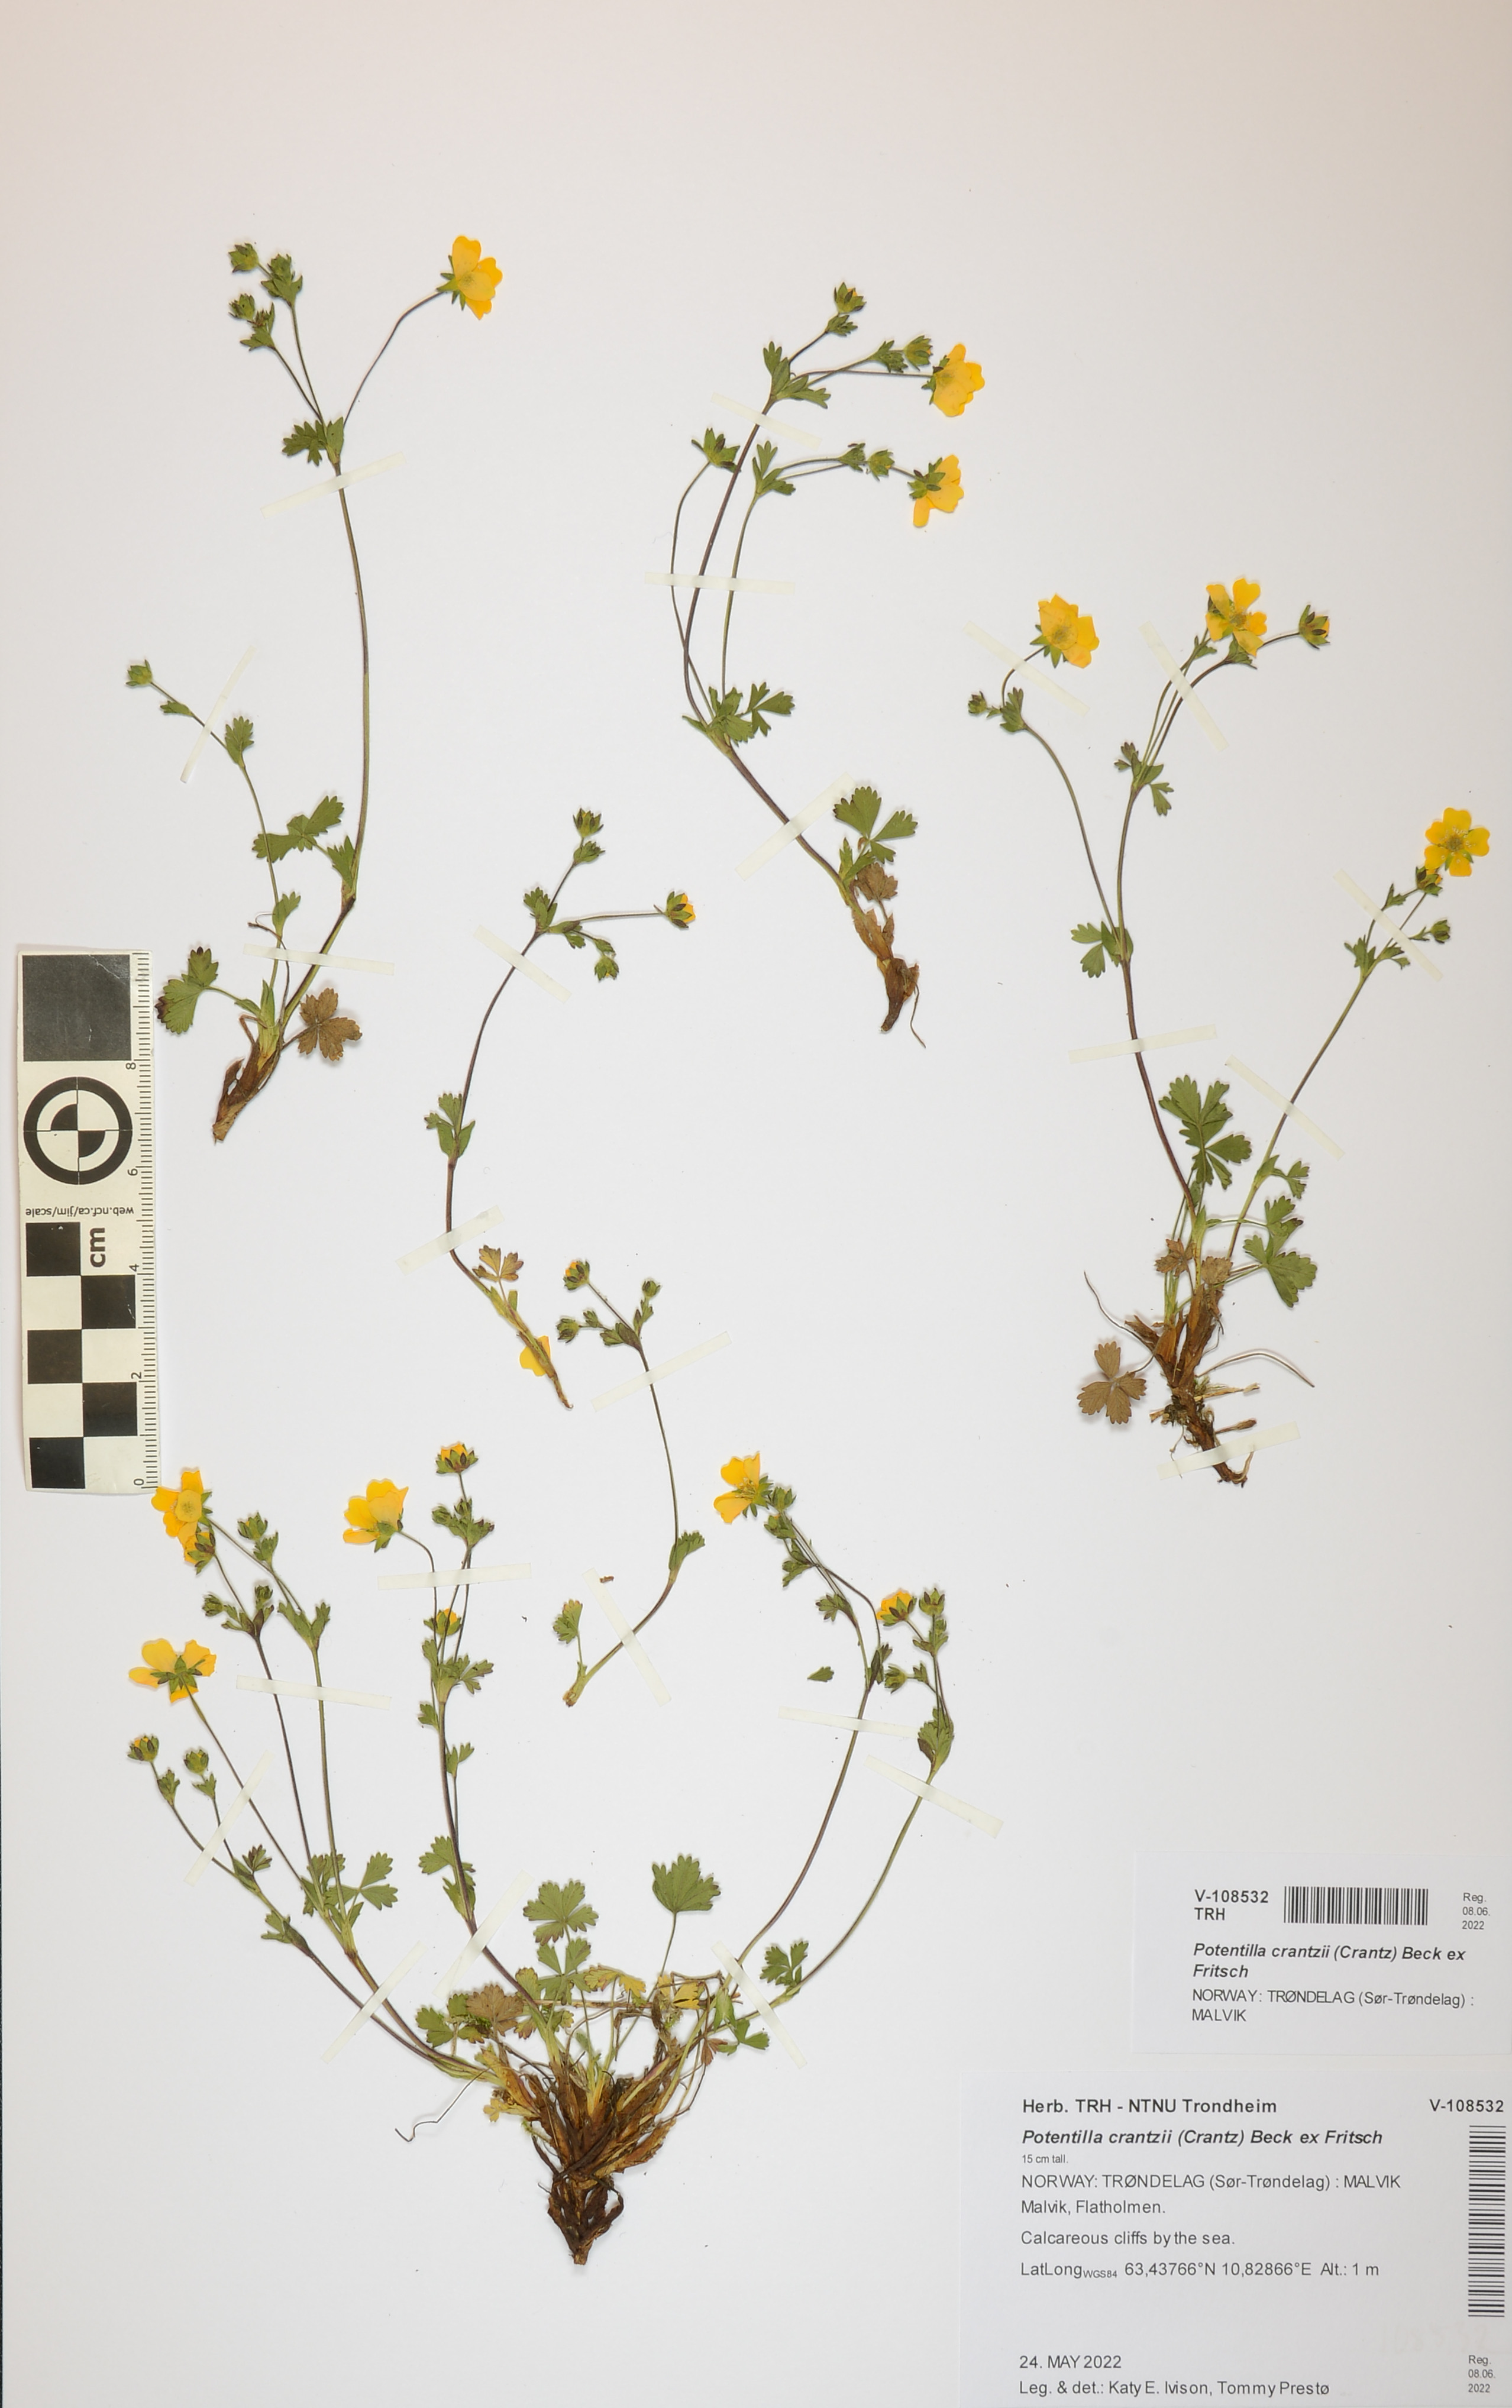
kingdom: Plantae
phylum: Tracheophyta
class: Magnoliopsida
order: Rosales
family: Rosaceae
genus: Potentilla
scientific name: Potentilla crantzii
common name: Alpine cinquefoil
